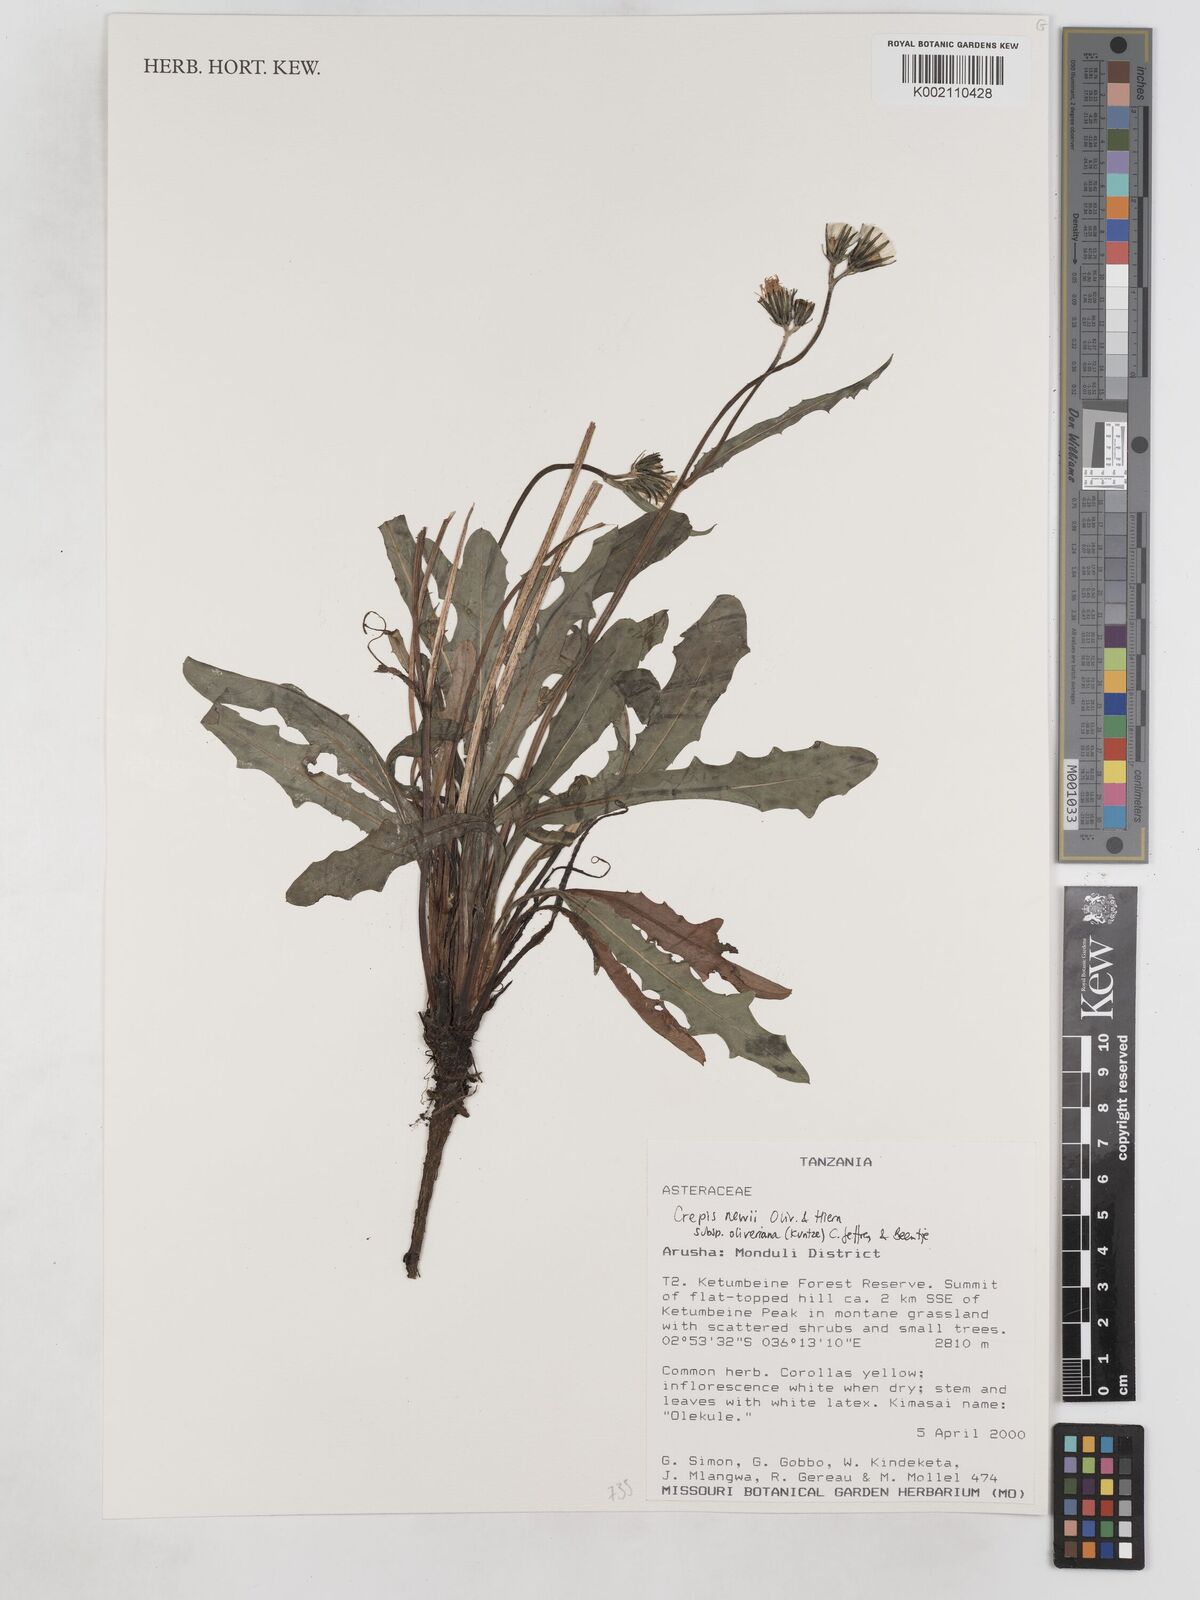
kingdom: Plantae
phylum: Tracheophyta
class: Magnoliopsida
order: Asterales
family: Asteraceae
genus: Crepis
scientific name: Crepis hypochoeridea
